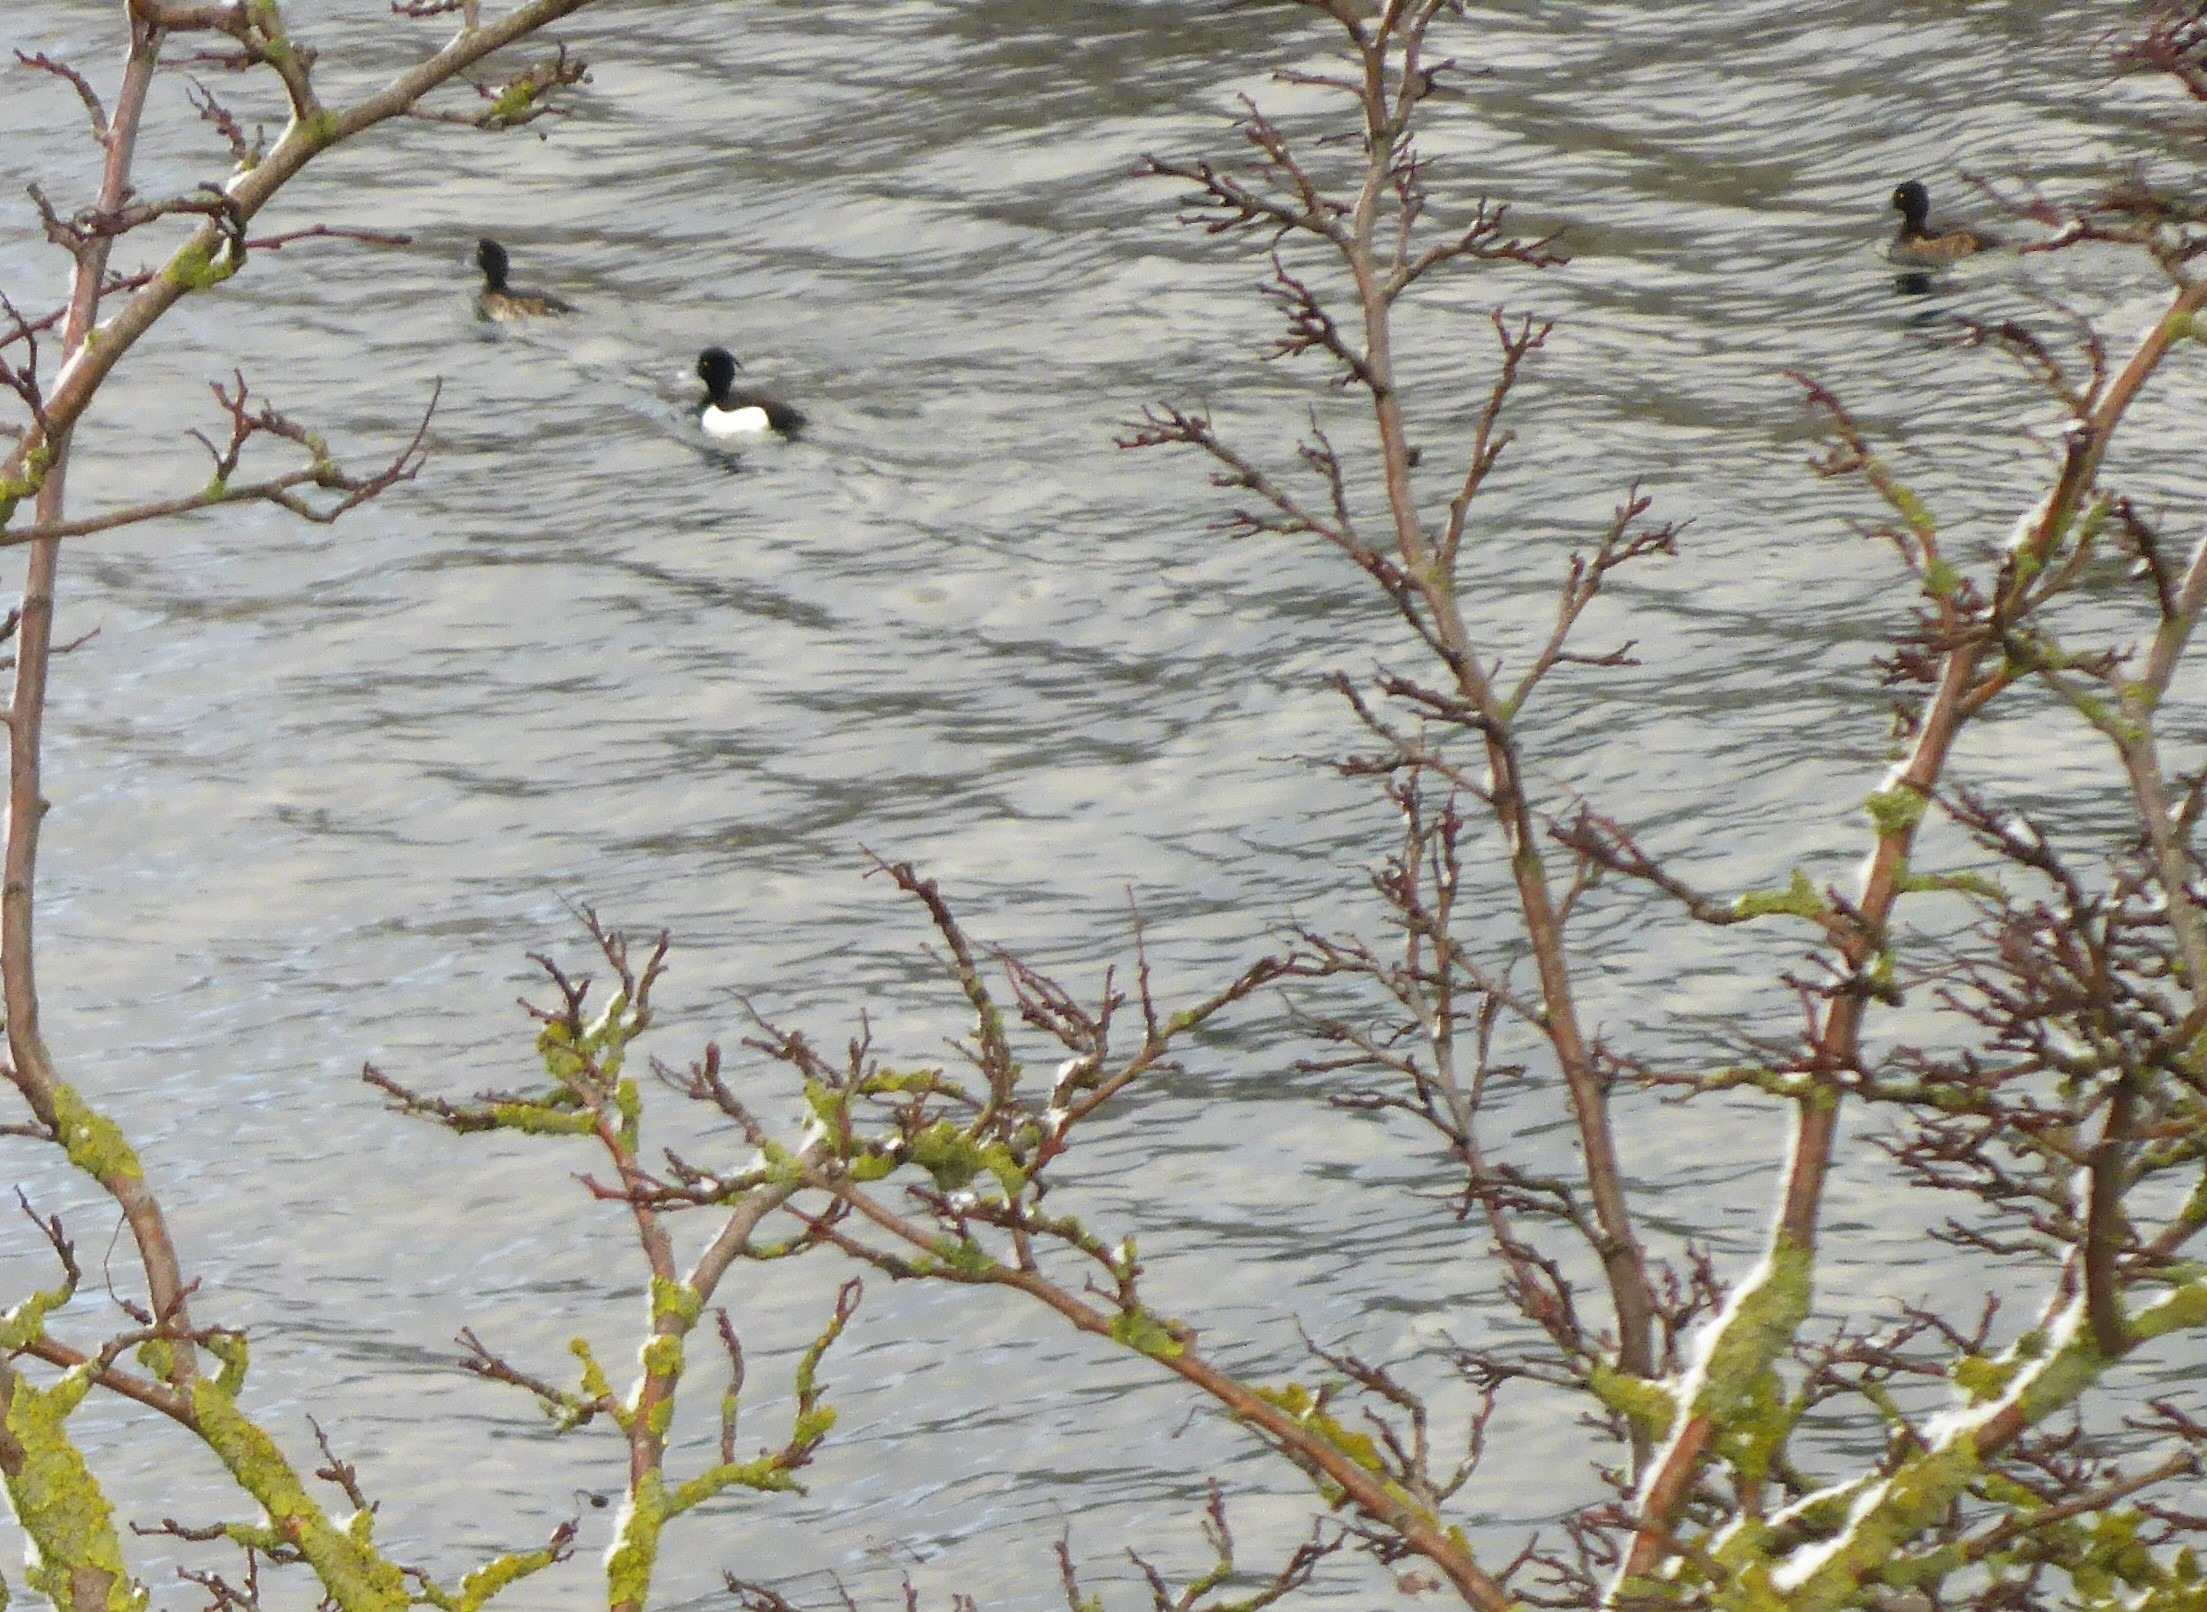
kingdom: Animalia
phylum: Chordata
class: Aves
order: Anseriformes
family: Anatidae
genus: Aythya
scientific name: Aythya fuligula
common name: Troldand
